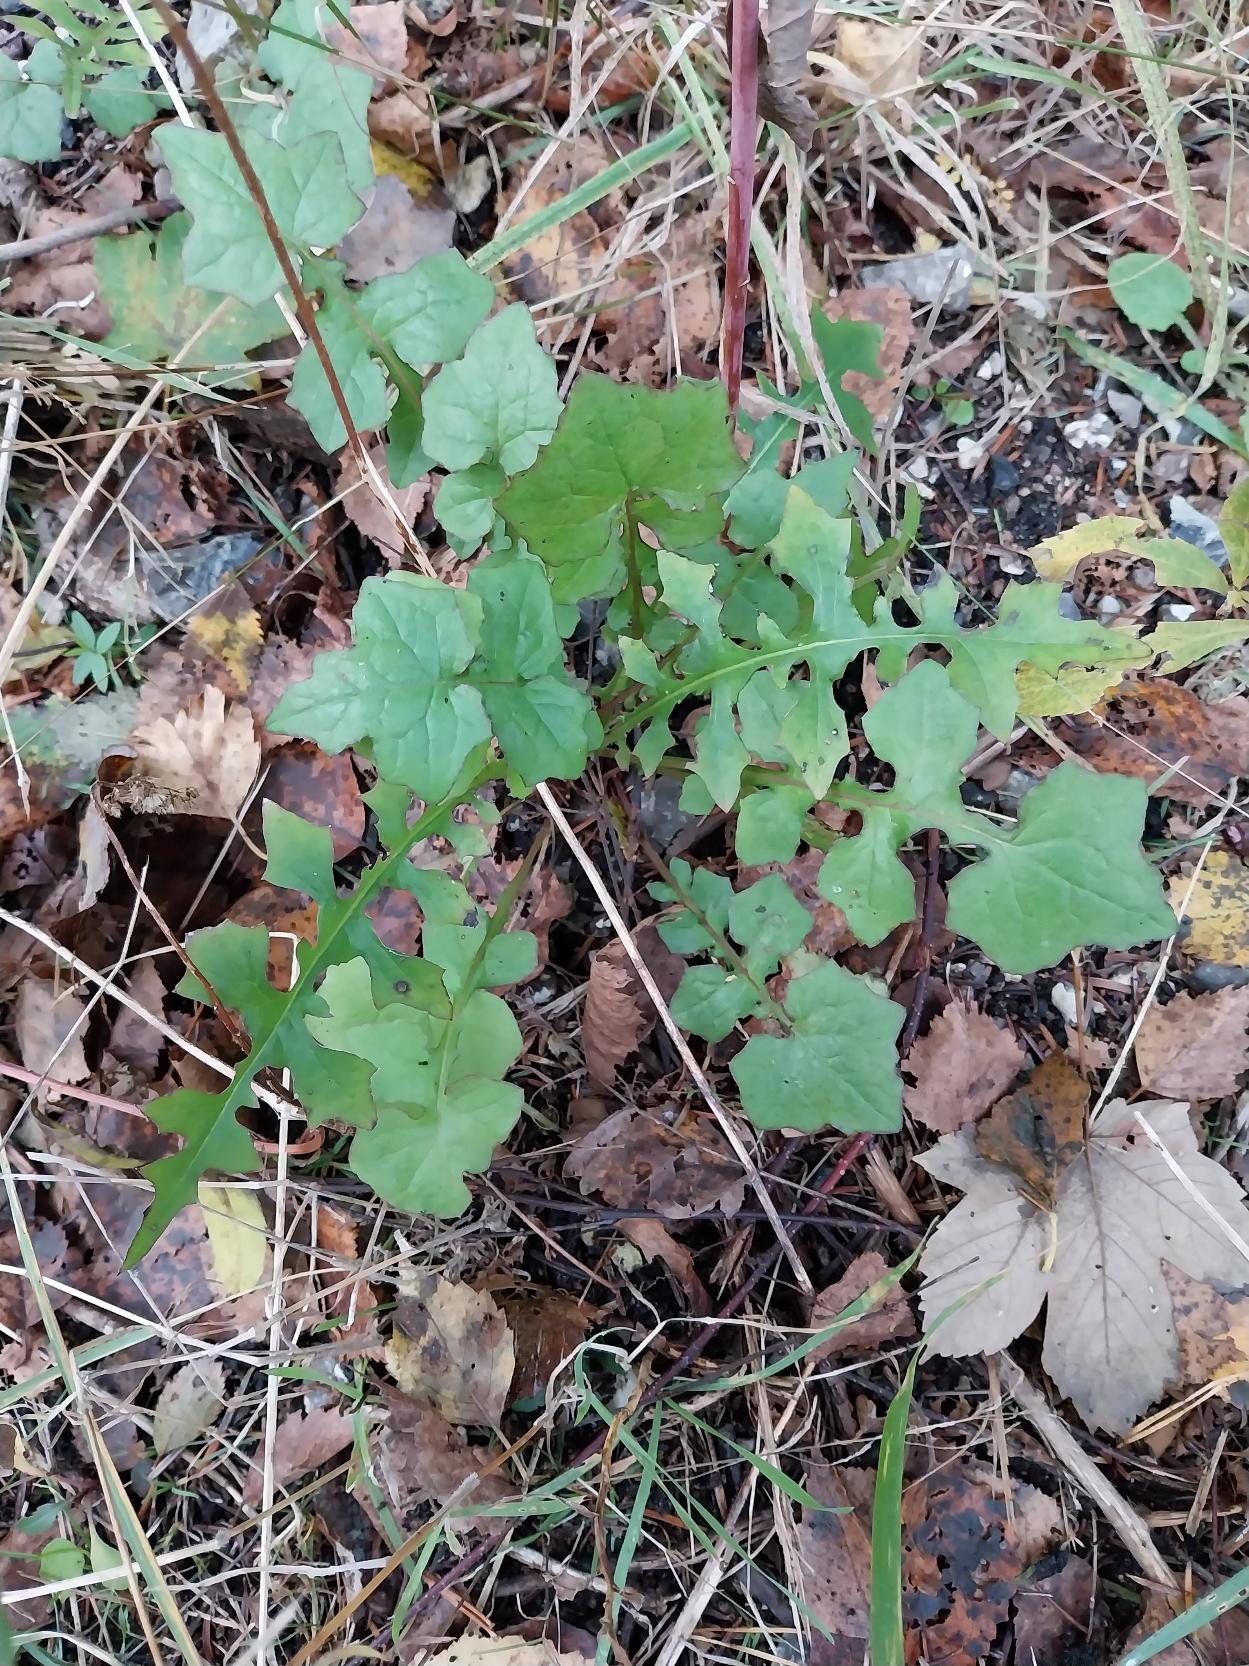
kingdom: Plantae
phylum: Tracheophyta
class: Magnoliopsida
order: Asterales
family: Asteraceae
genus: Mycelis
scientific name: Mycelis muralis
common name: Skov-salat
